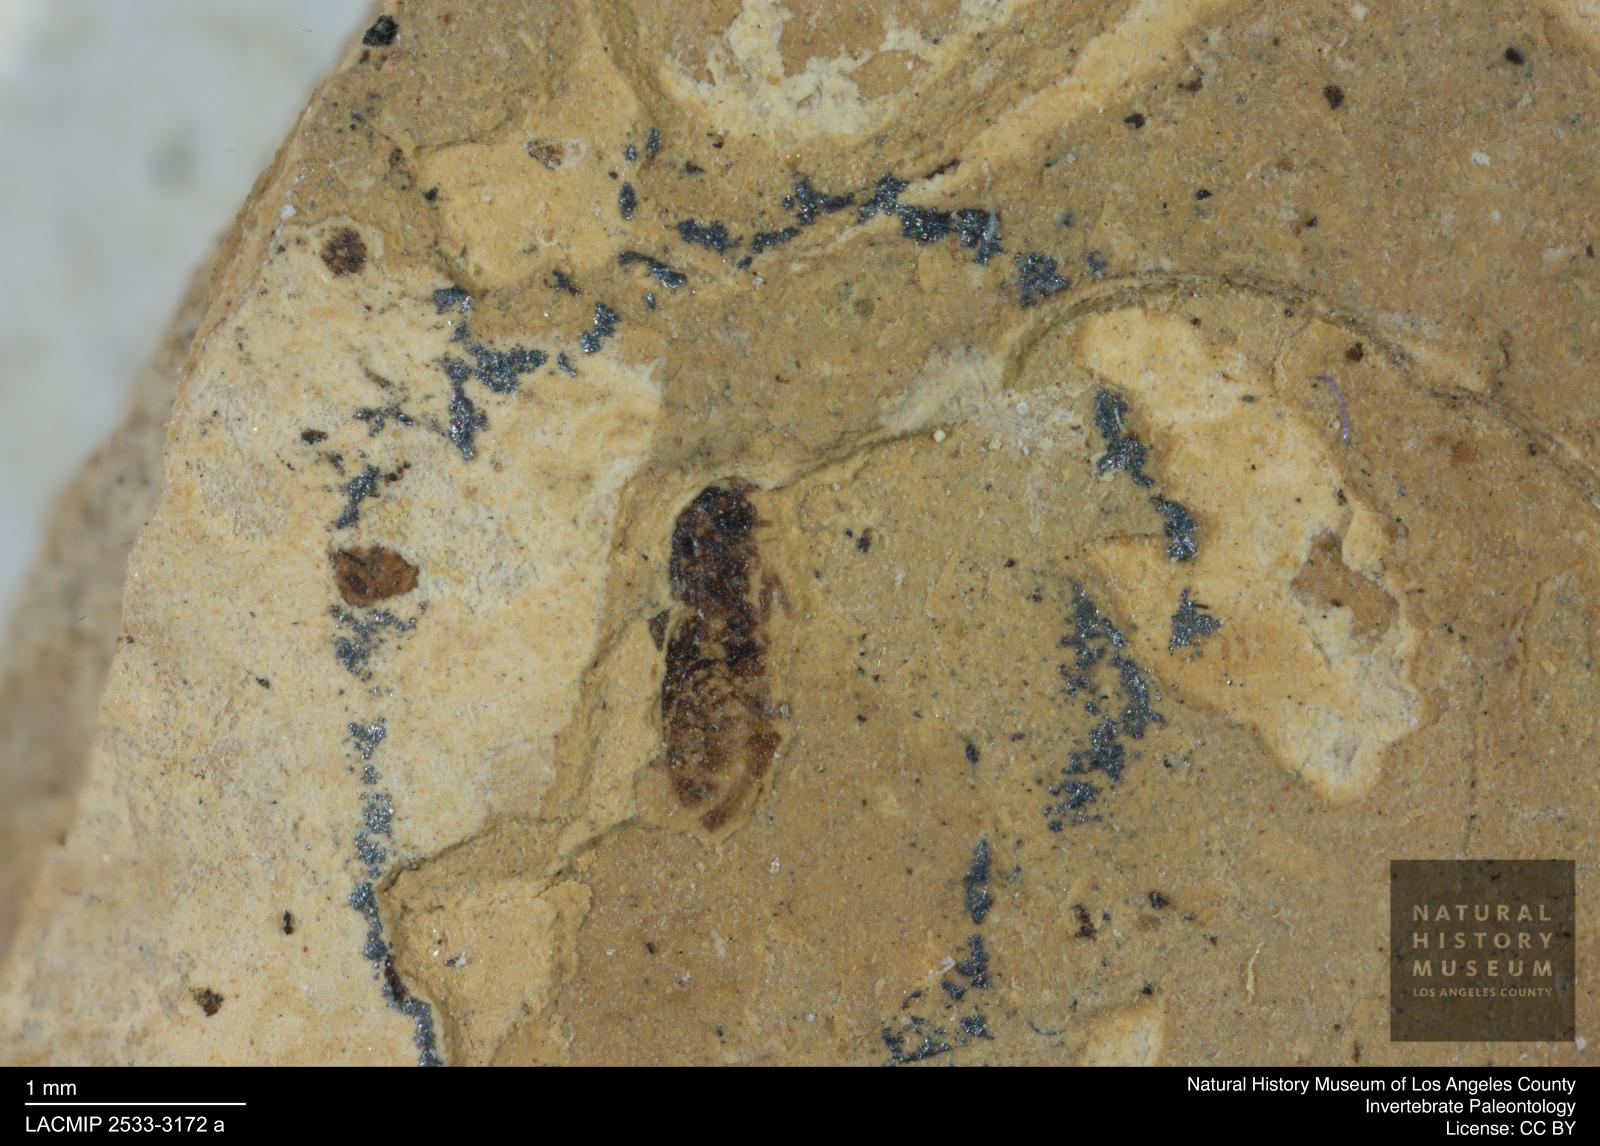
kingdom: Animalia
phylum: Arthropoda
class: Insecta
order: Thysanoptera
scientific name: Thysanoptera
